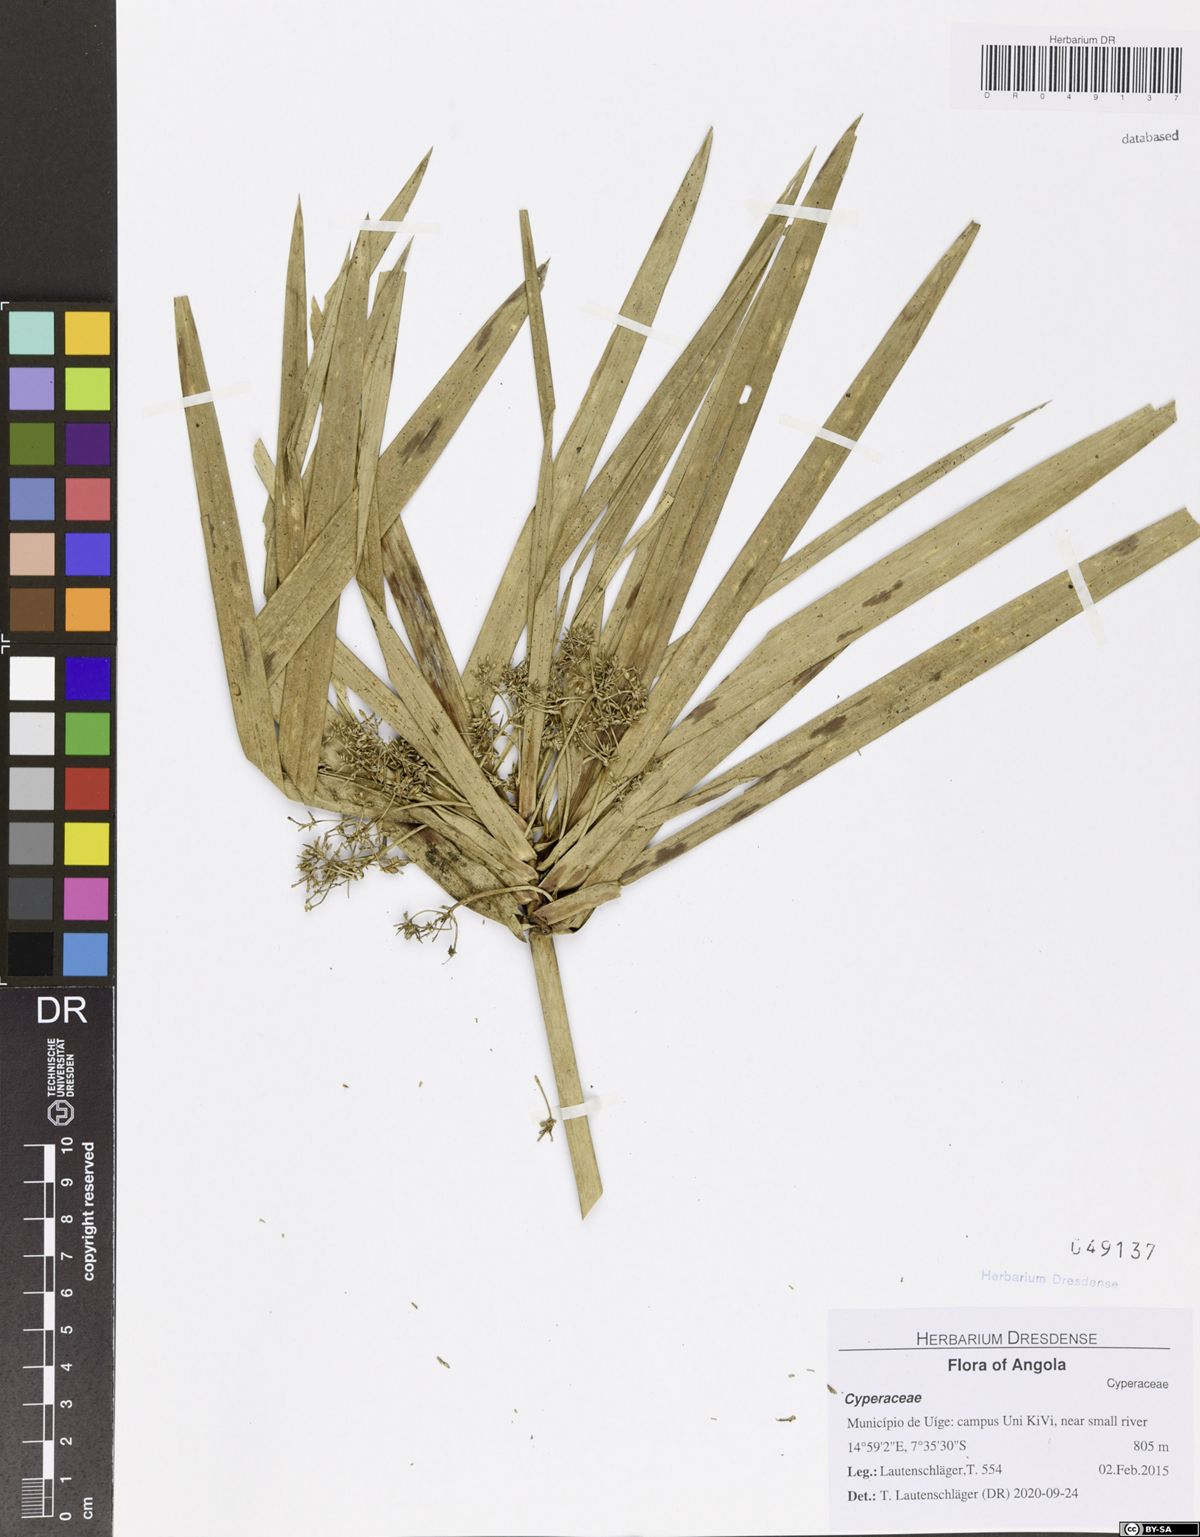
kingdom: Plantae
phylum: Tracheophyta
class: Liliopsida
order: Poales
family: Cyperaceae
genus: Cyperus
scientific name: Cyperus alternifolius
